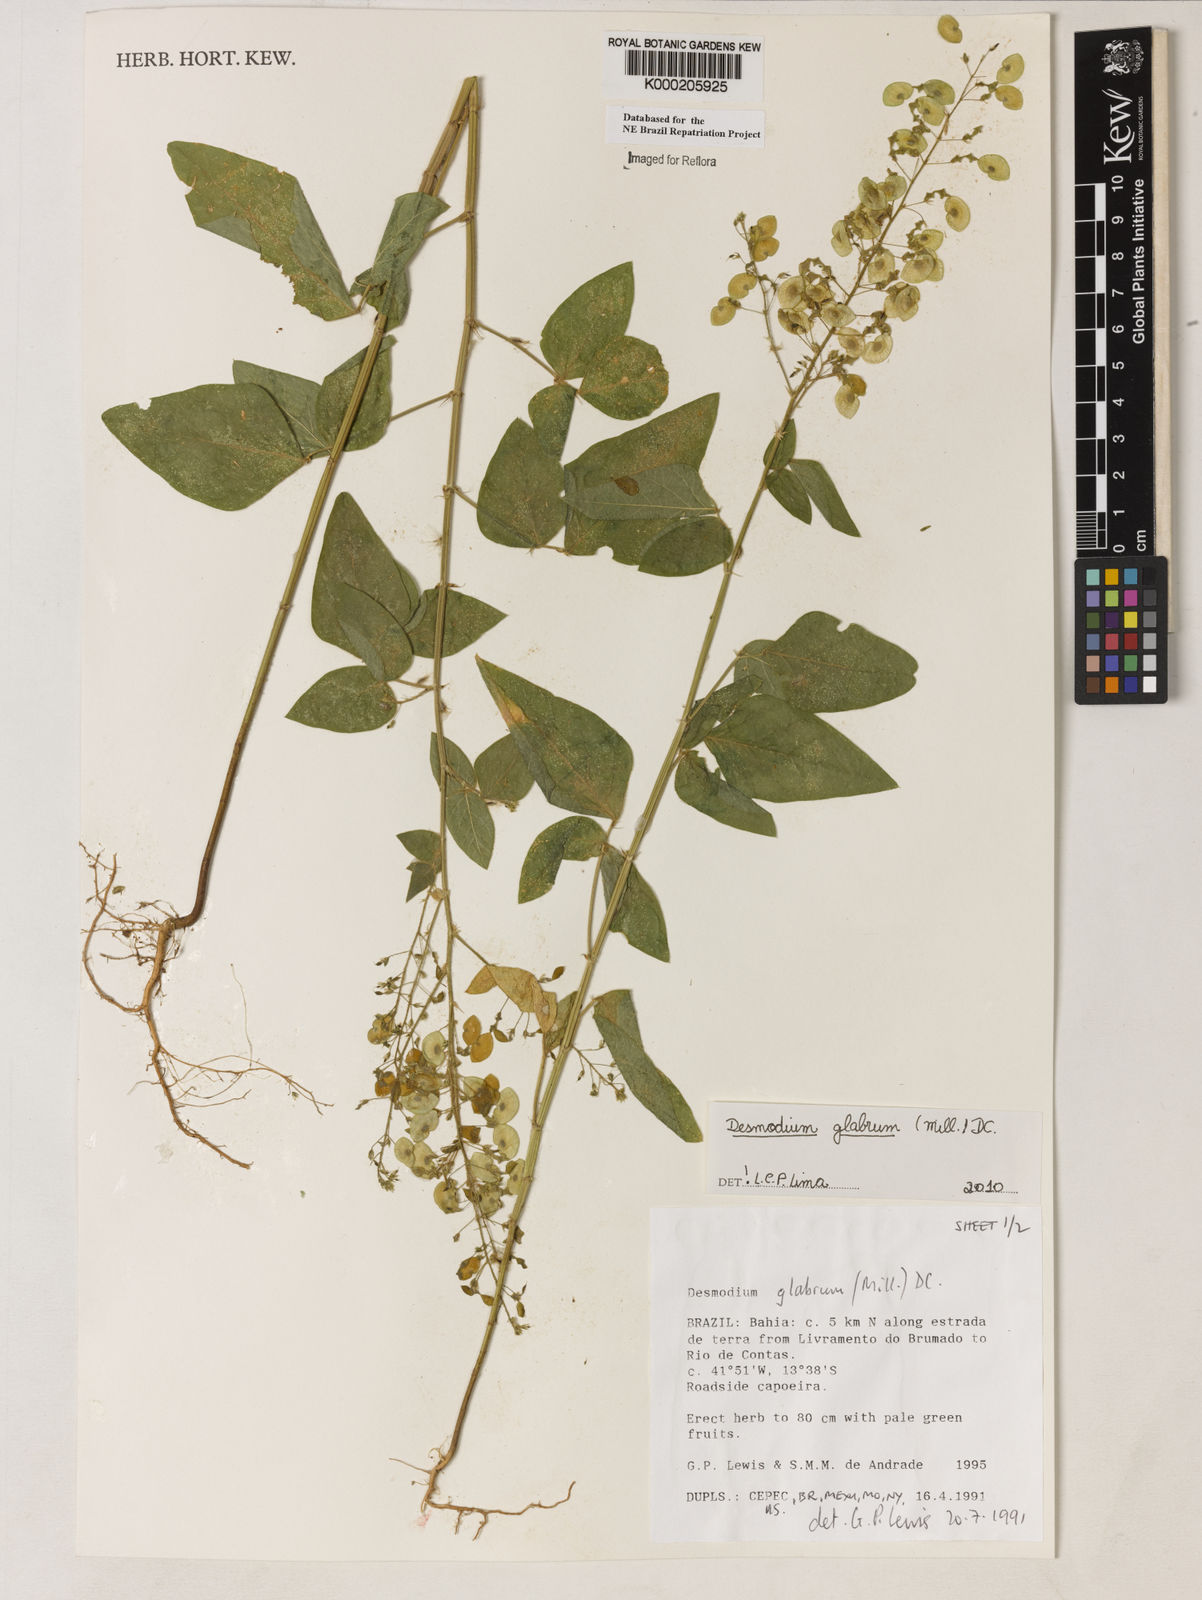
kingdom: Plantae
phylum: Tracheophyta
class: Magnoliopsida
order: Fabales
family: Fabaceae
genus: Desmodium
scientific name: Desmodium glabrum
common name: Zarzabacoa dulce
